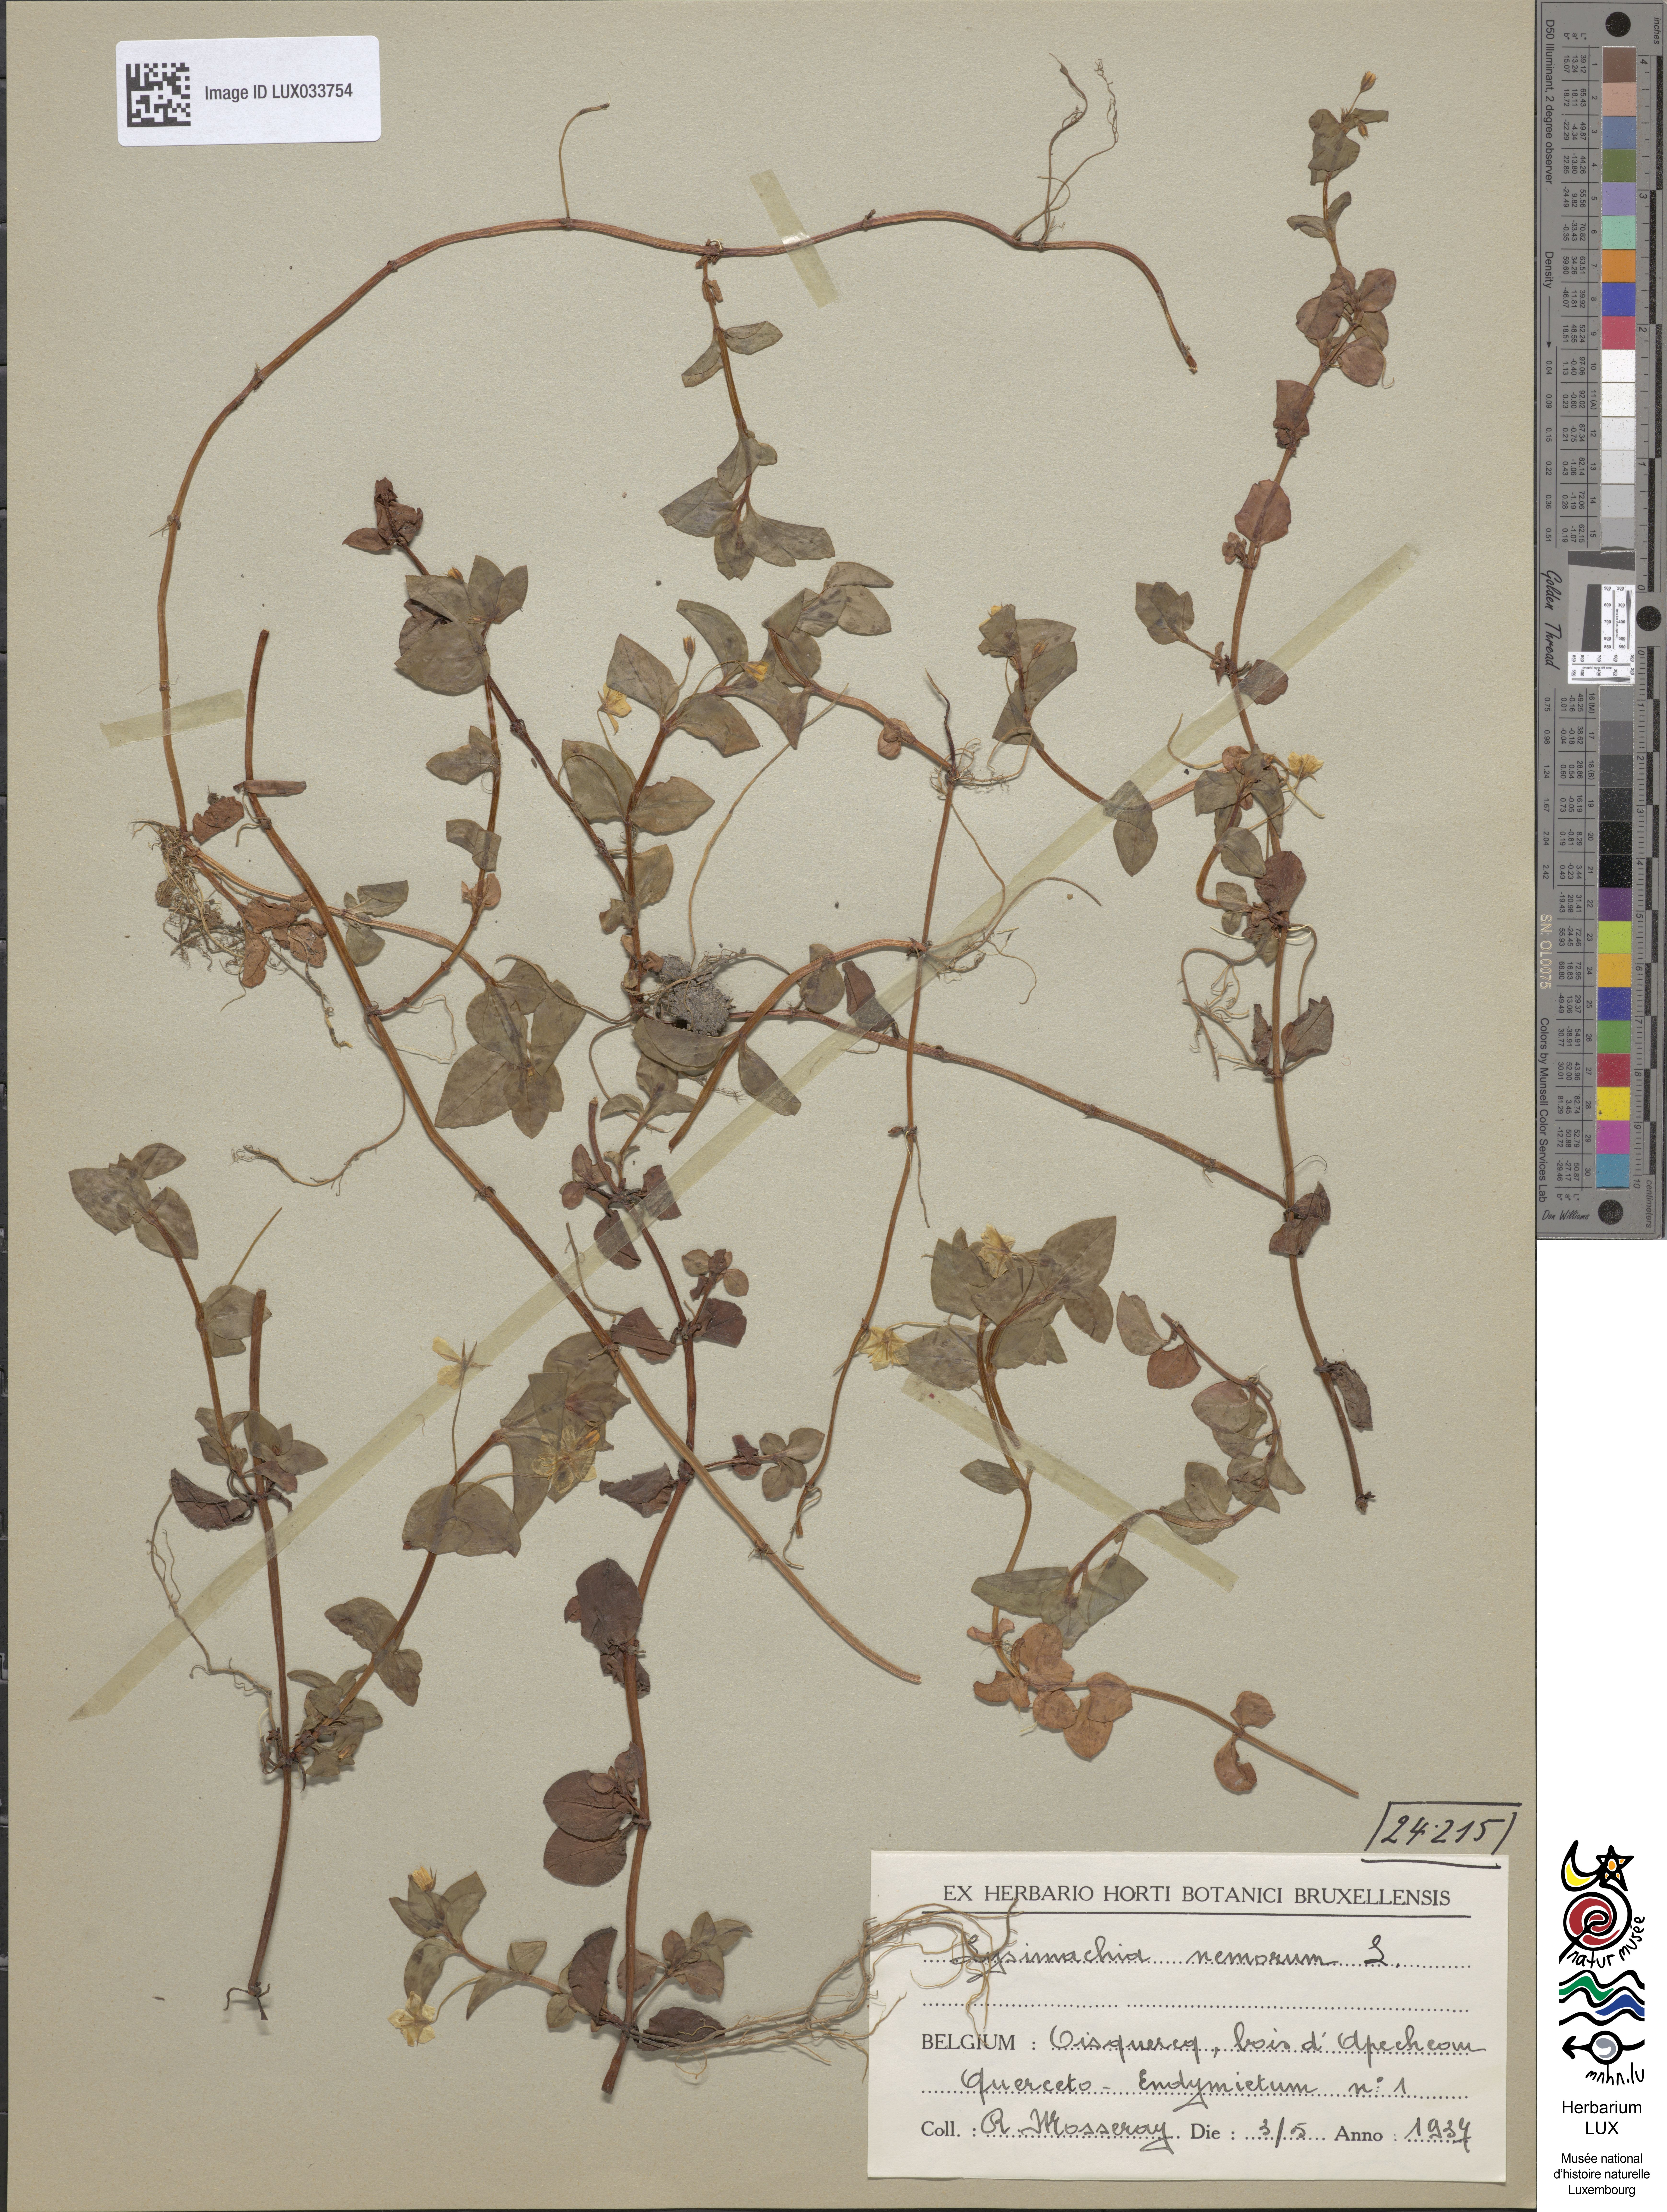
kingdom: Plantae
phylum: Tracheophyta
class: Magnoliopsida
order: Ericales
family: Primulaceae
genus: Lysimachia
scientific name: Lysimachia nemorum
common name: Yellow pimpernel
